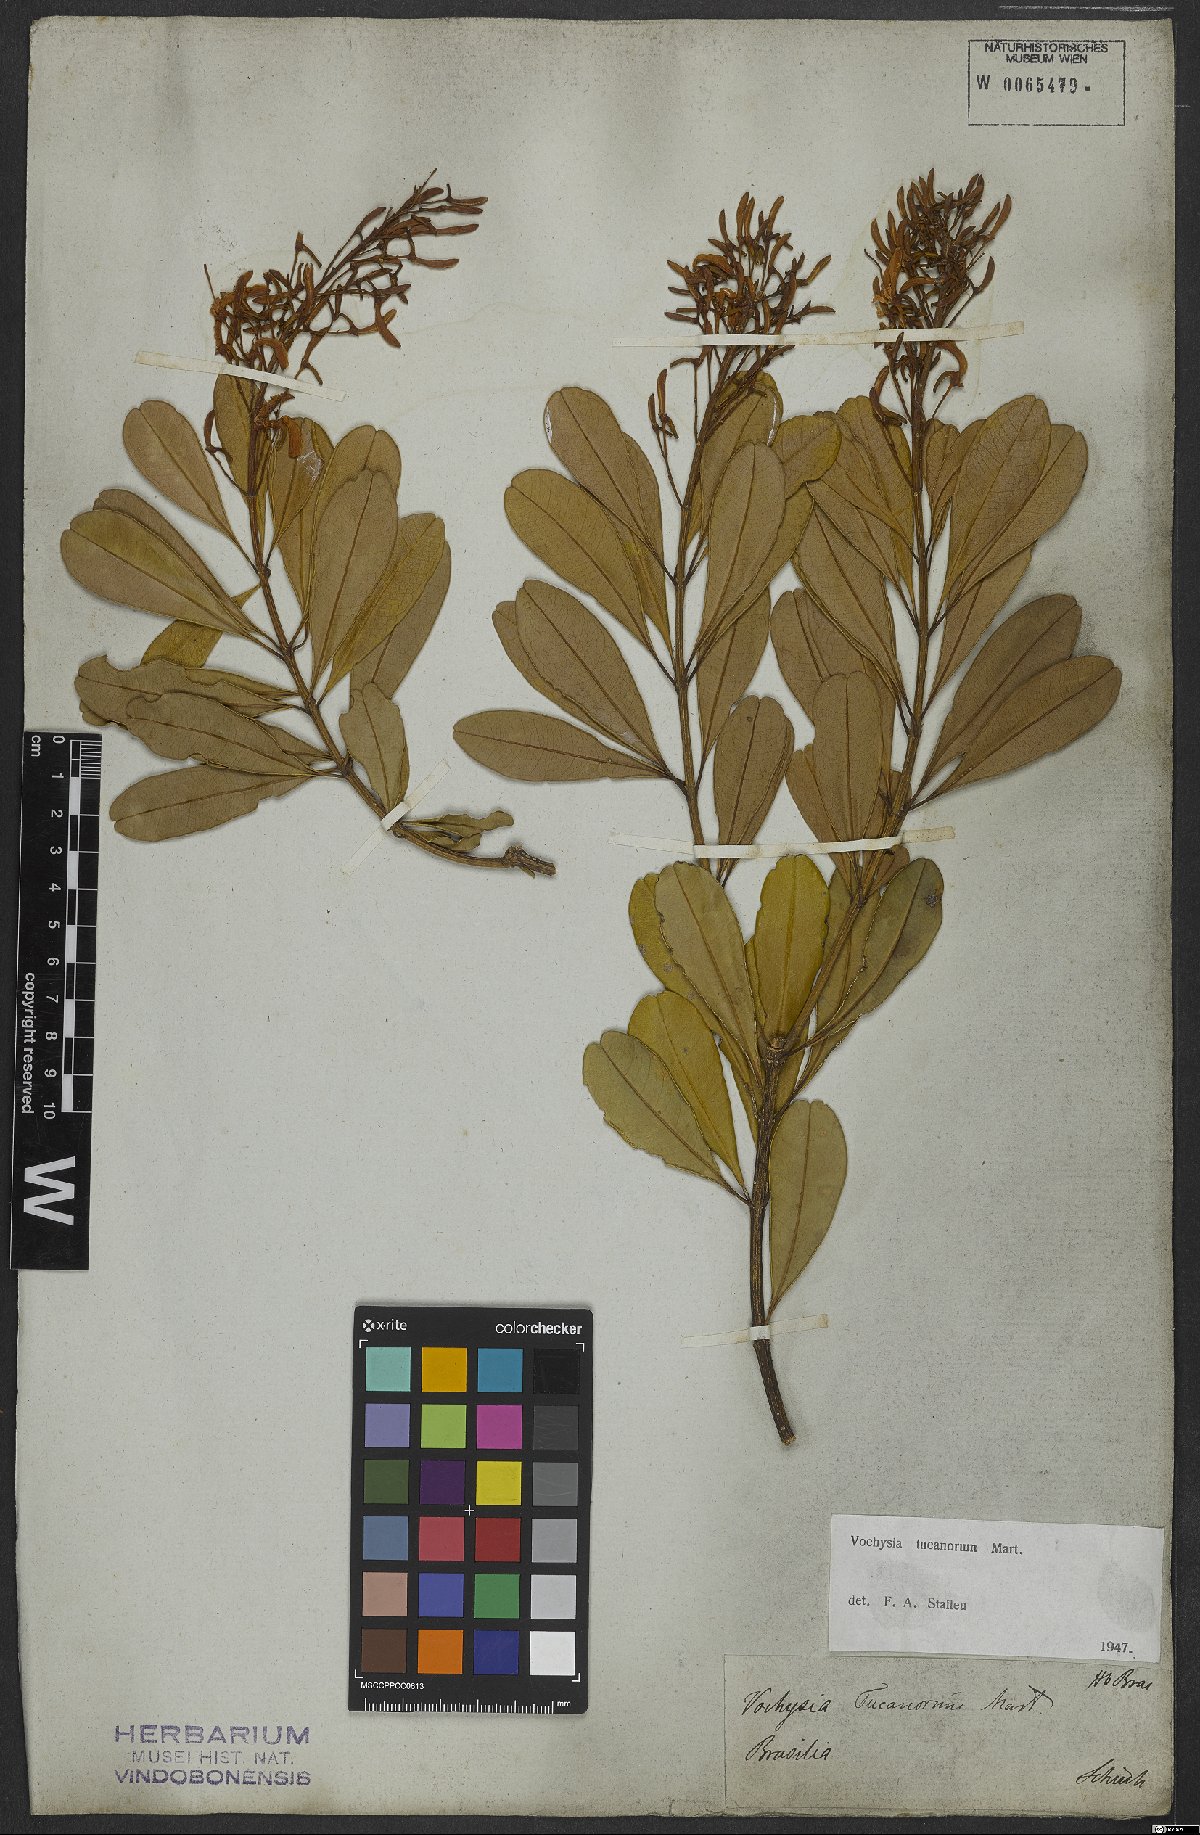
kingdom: Plantae
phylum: Tracheophyta
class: Magnoliopsida
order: Myrtales
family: Vochysiaceae
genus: Vochysia
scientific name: Vochysia tucanorum
